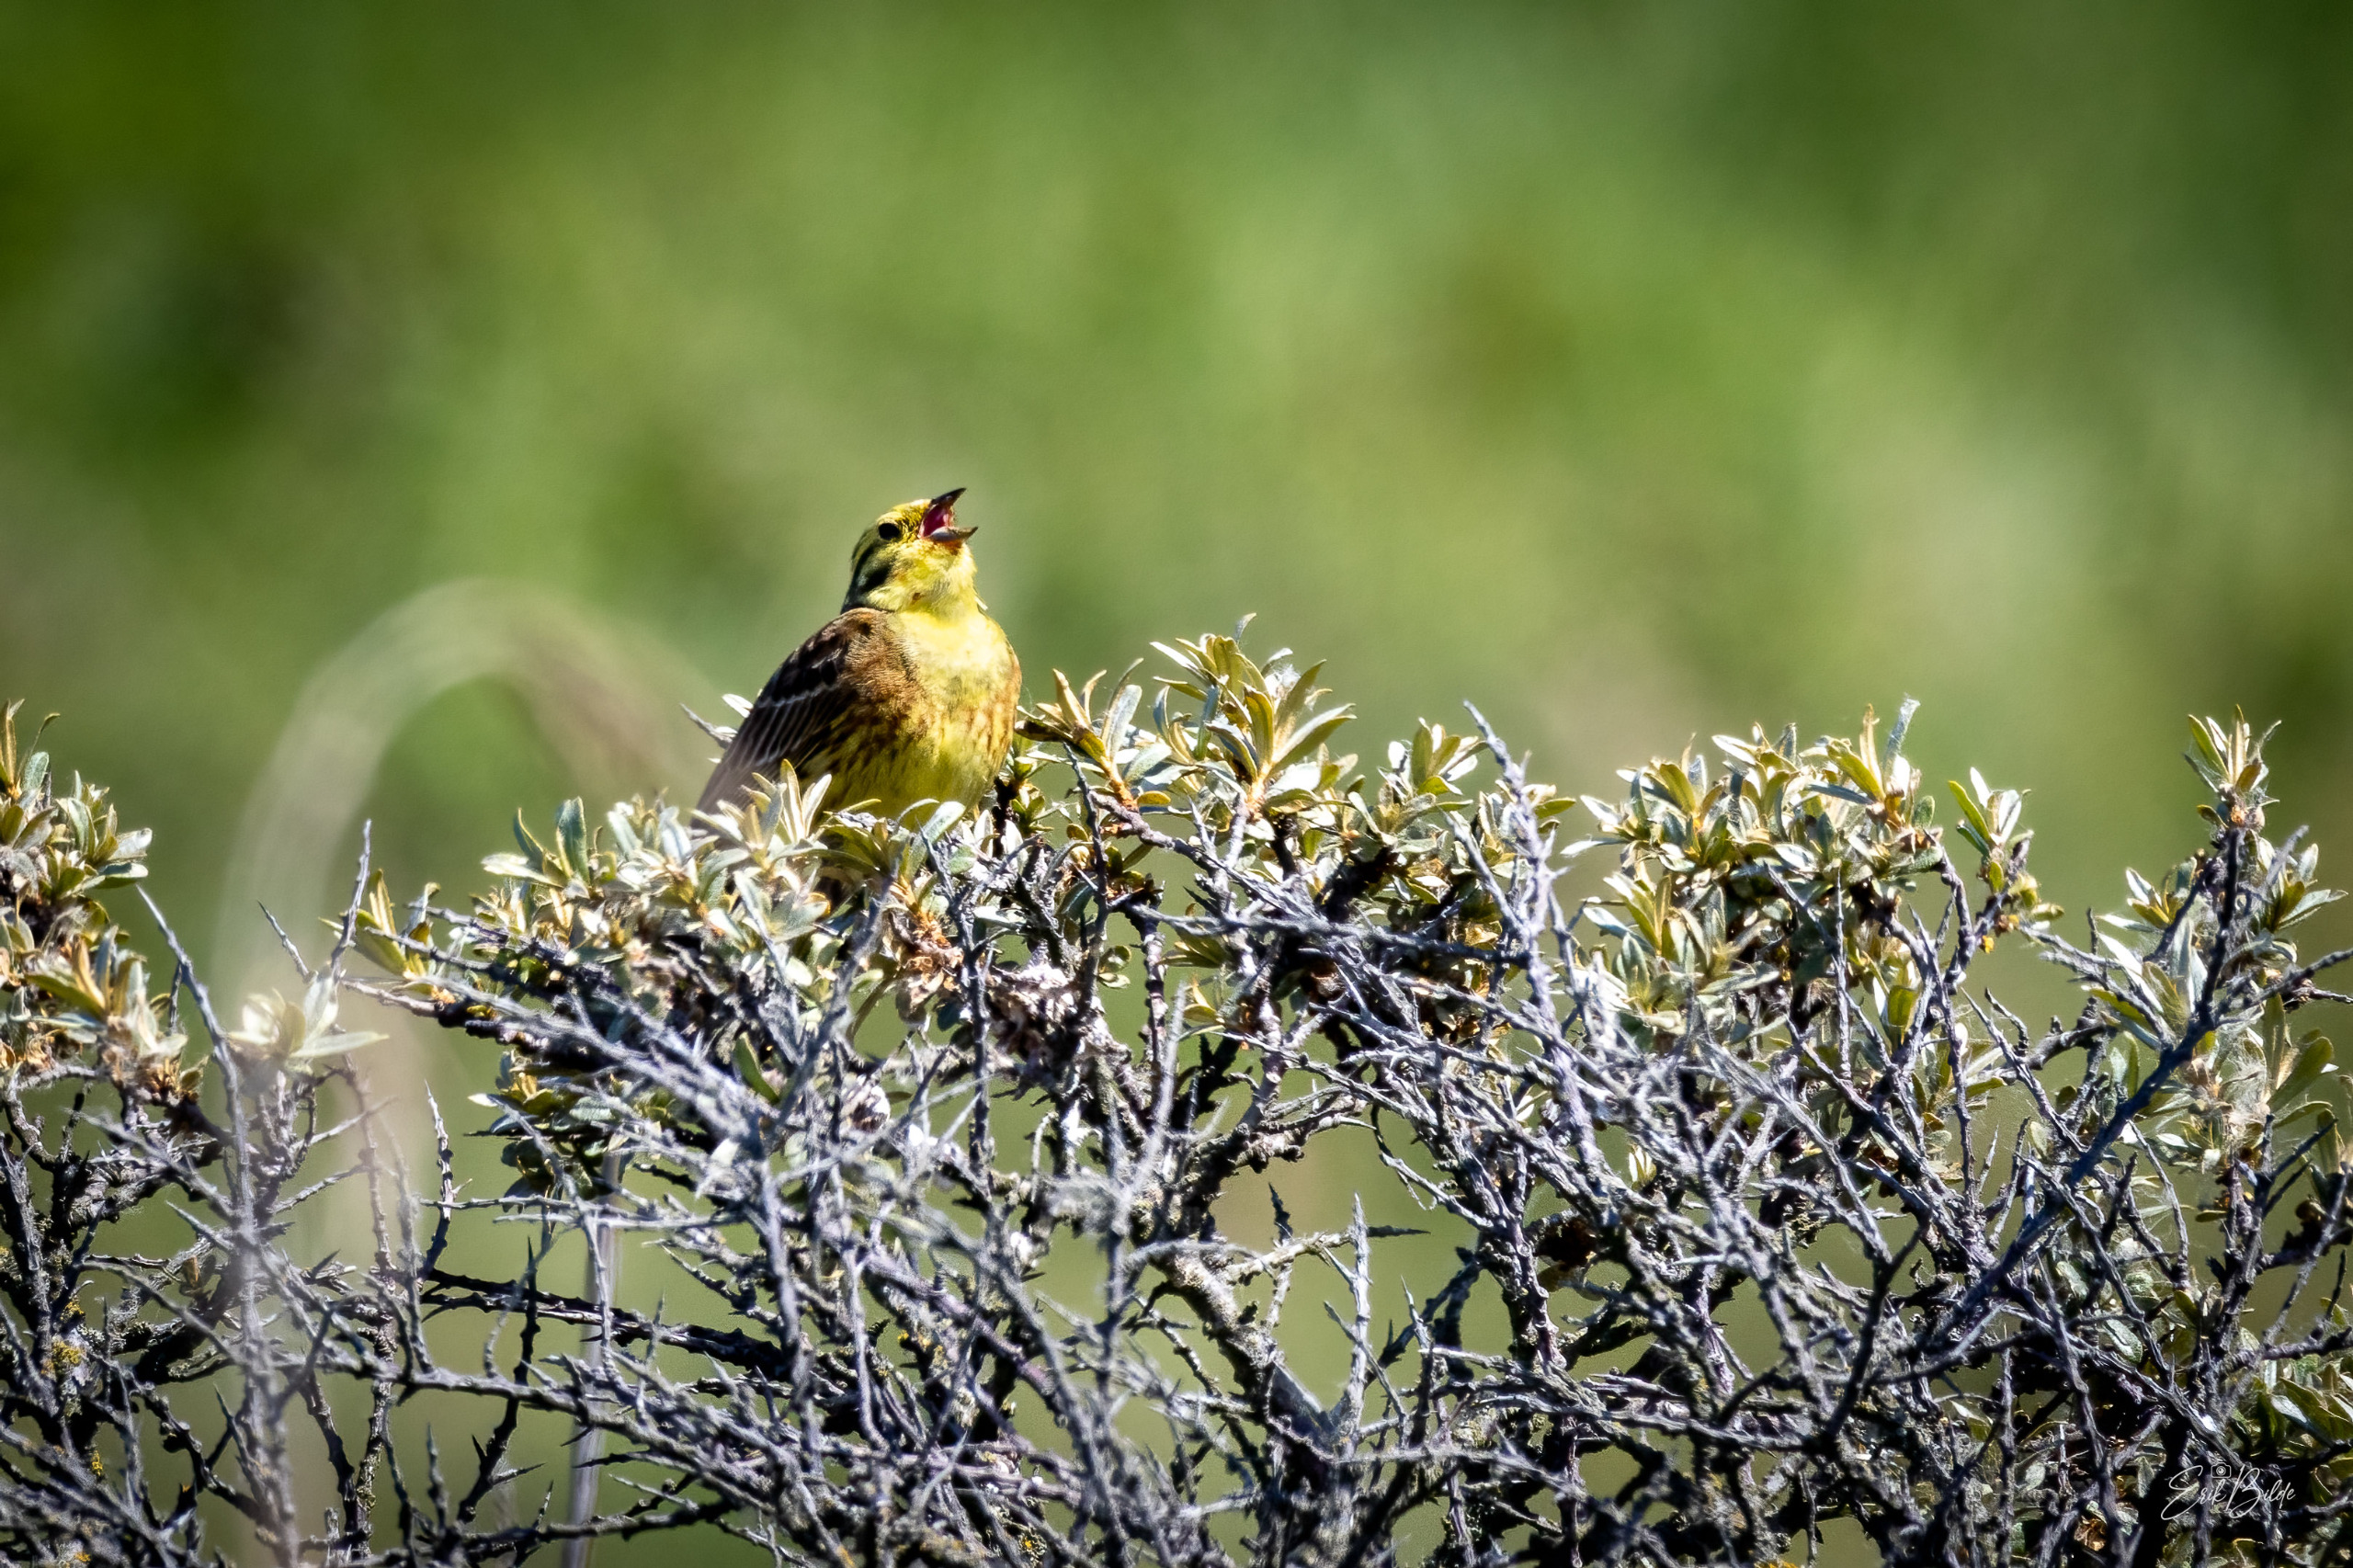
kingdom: Animalia
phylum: Chordata
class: Aves
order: Passeriformes
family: Emberizidae
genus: Emberiza
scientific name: Emberiza citrinella
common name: Gulspurv
